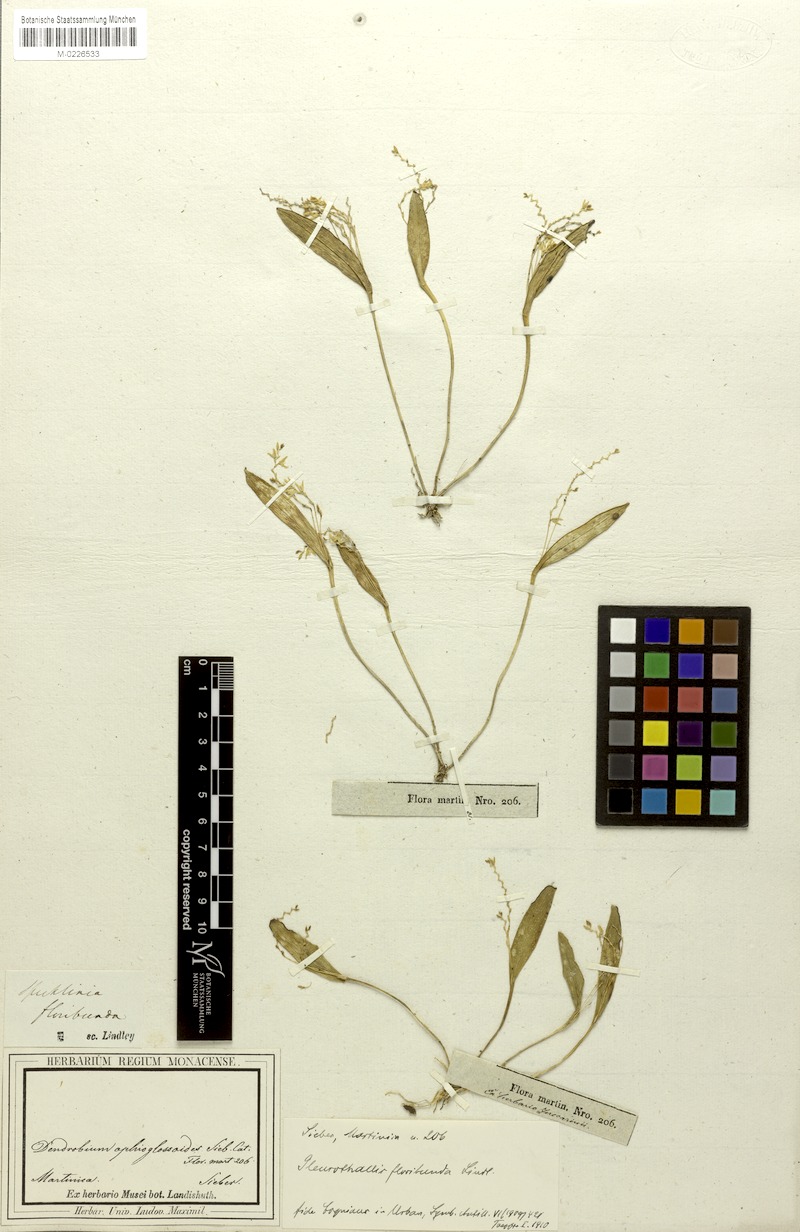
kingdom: Plantae
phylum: Tracheophyta
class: Liliopsida
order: Asparagales
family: Orchidaceae
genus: Acianthera
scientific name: Acianthera capillaris
